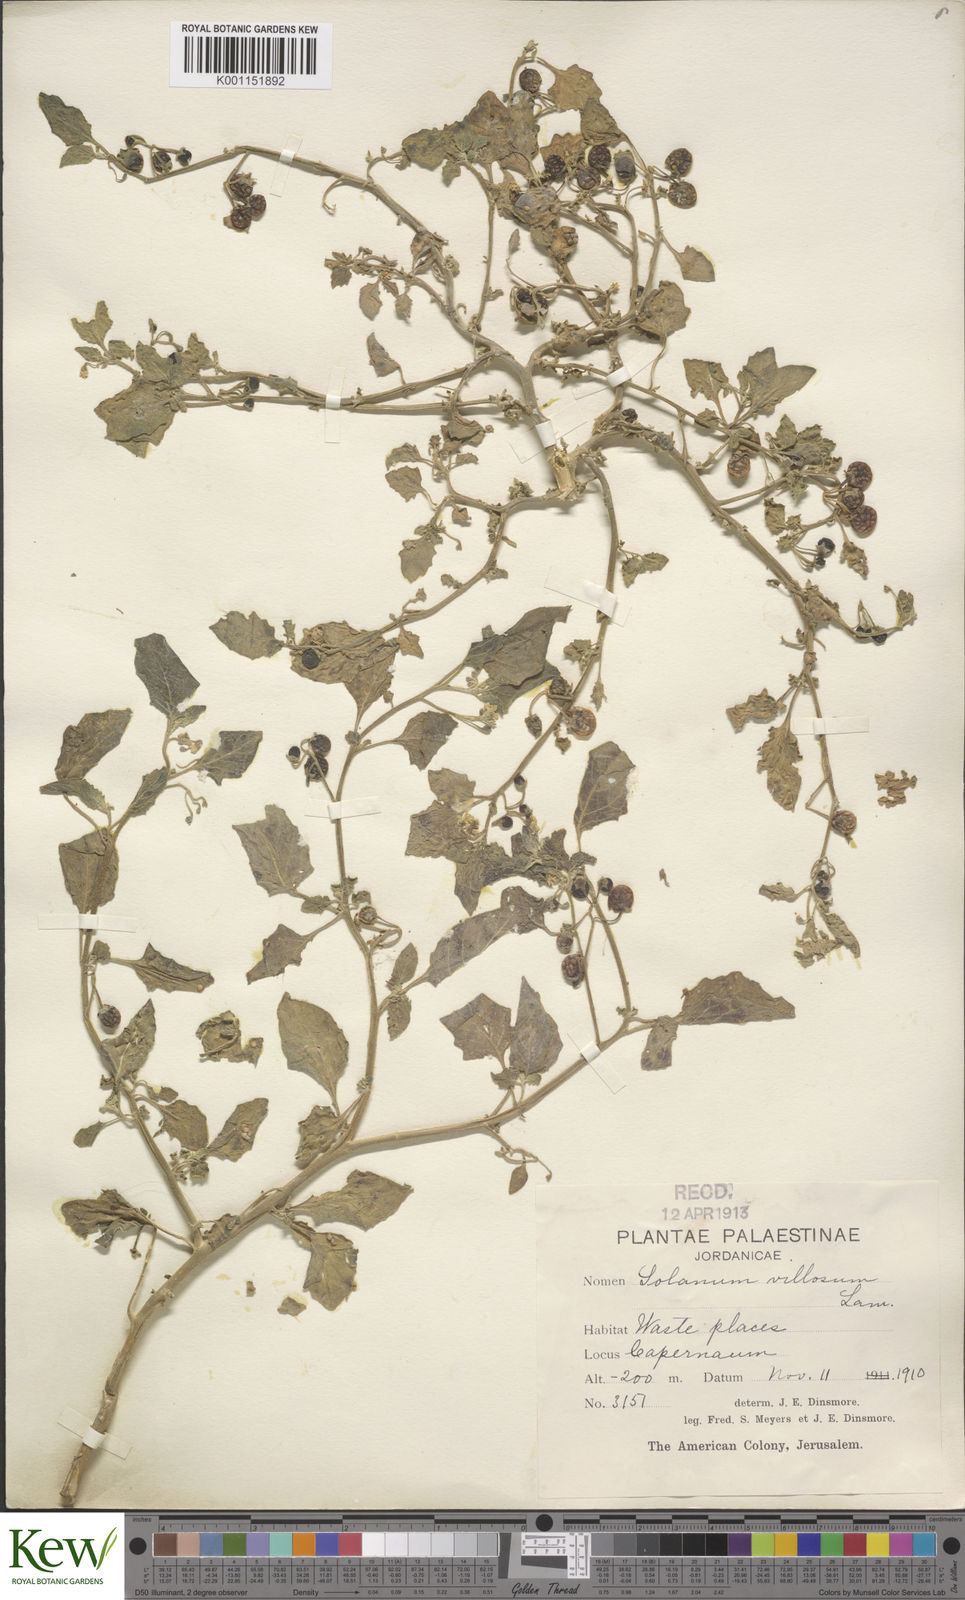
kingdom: Plantae
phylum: Tracheophyta
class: Magnoliopsida
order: Solanales
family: Solanaceae
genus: Solanum
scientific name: Solanum
